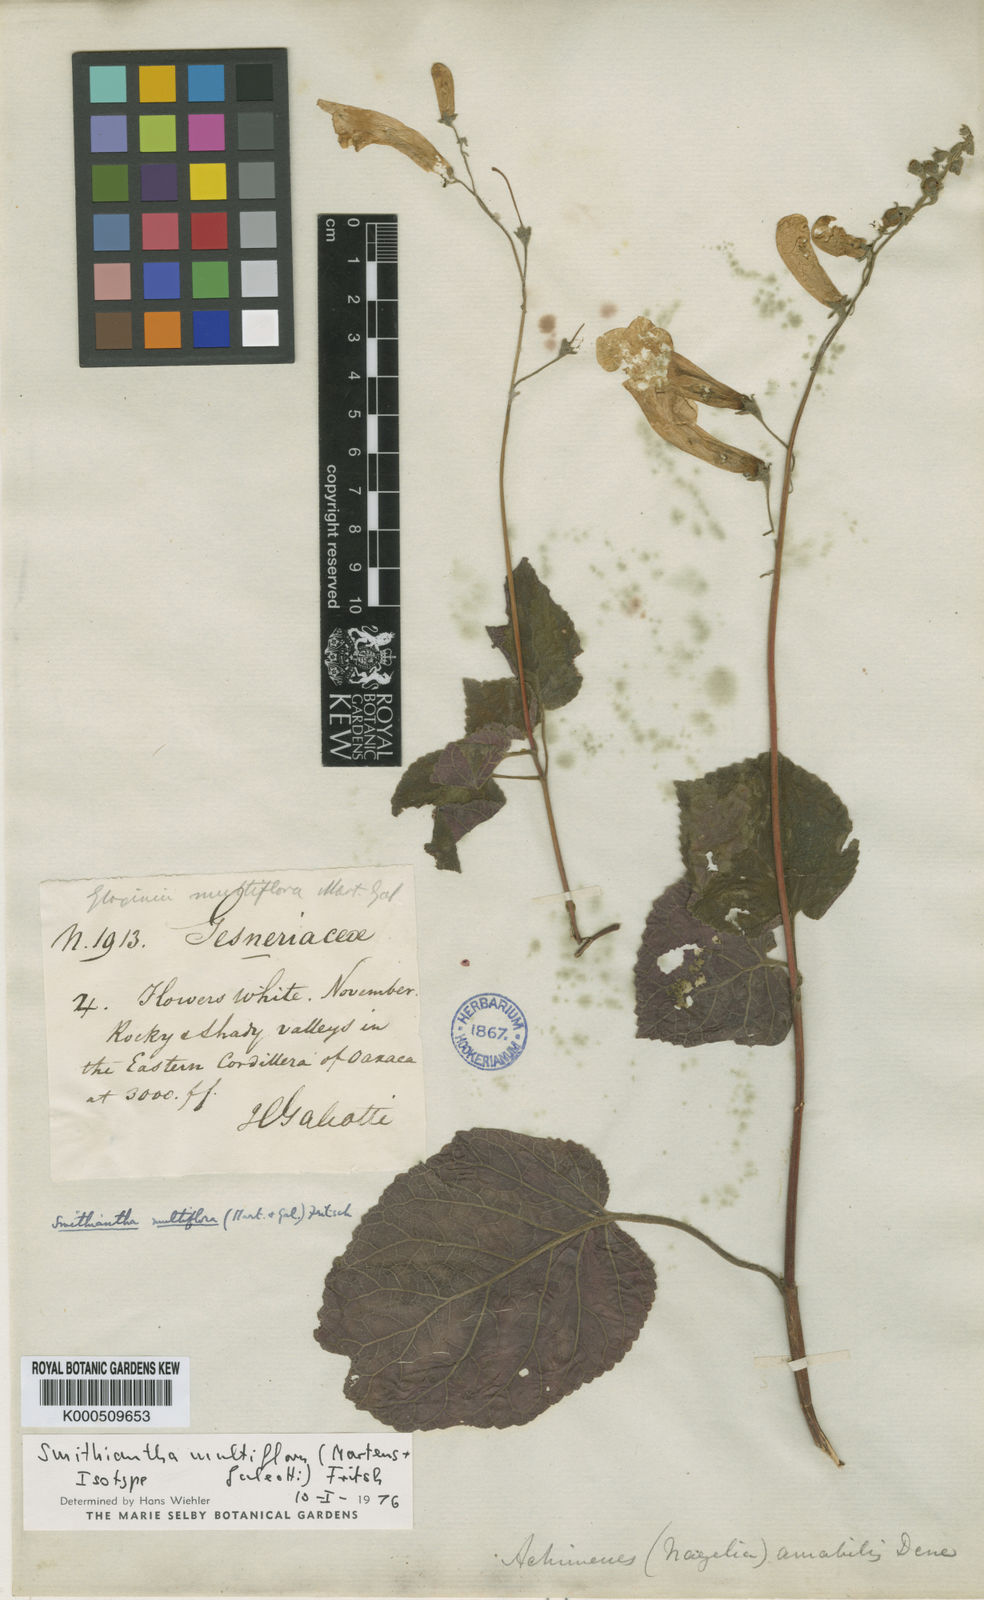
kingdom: Plantae
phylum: Tracheophyta
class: Magnoliopsida
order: Lamiales
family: Gesneriaceae
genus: Smithiantha
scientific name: Smithiantha multiflora
